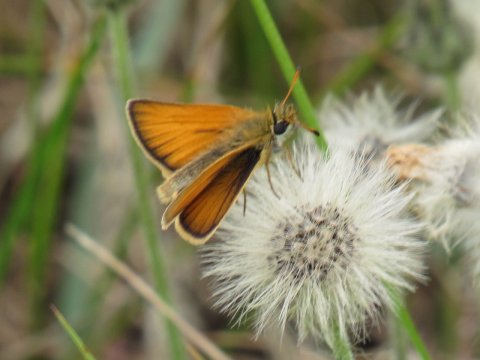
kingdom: Animalia
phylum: Arthropoda
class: Insecta
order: Lepidoptera
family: Hesperiidae
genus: Thymelicus
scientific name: Thymelicus lineola
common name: European Skipper
